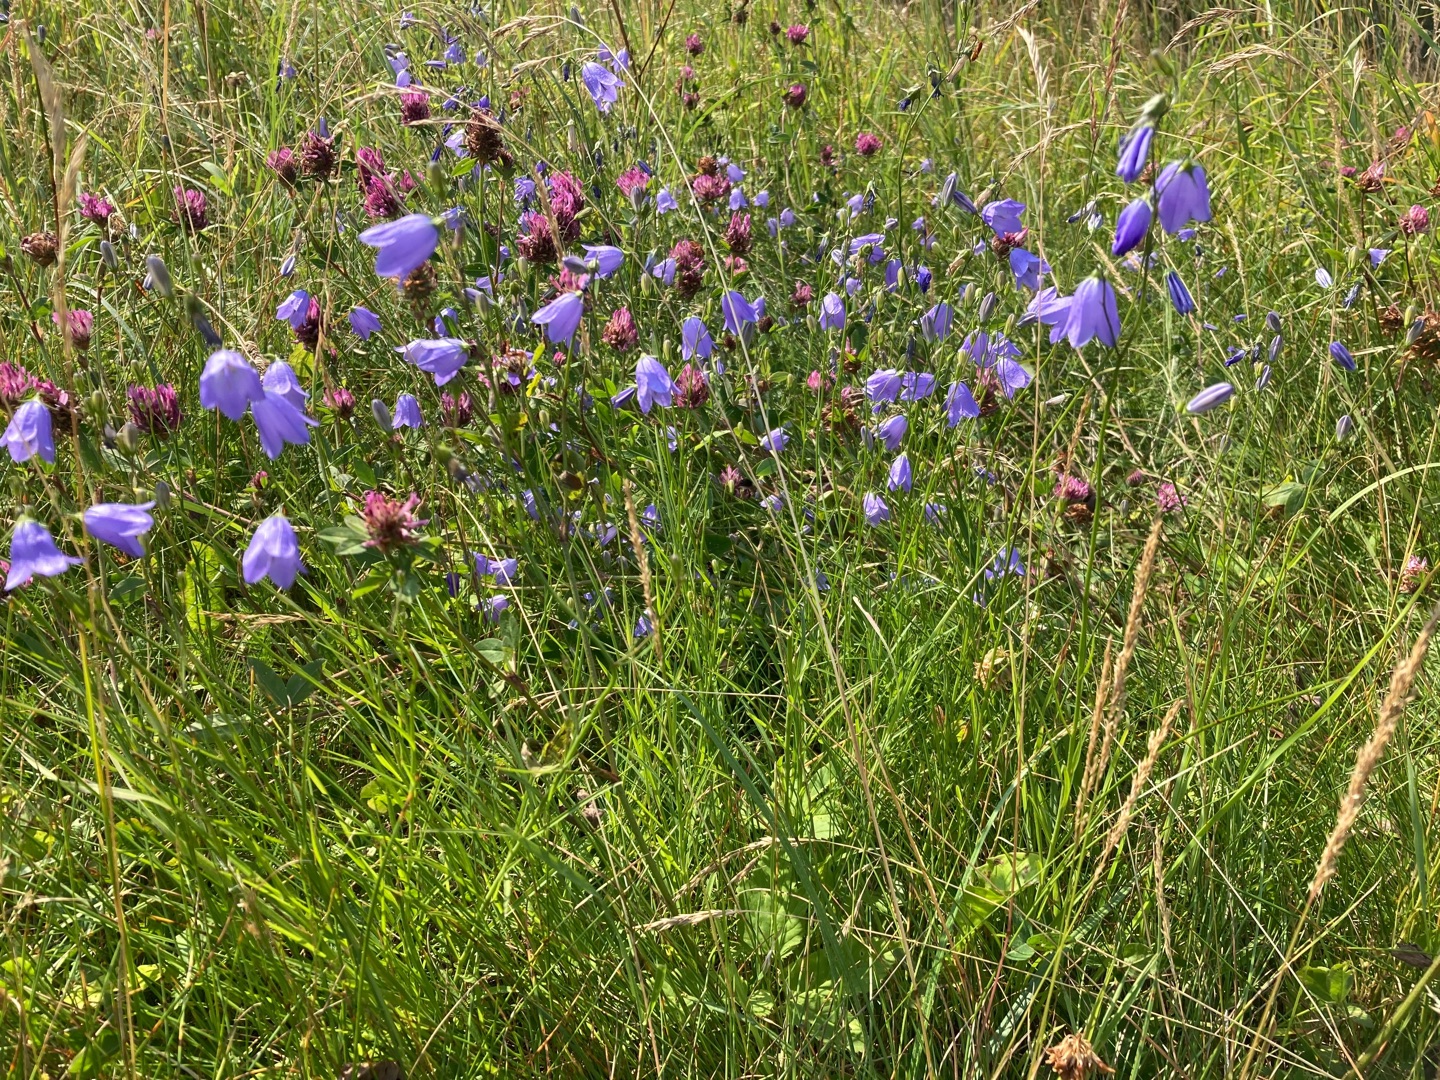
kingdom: Plantae
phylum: Tracheophyta
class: Magnoliopsida
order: Asterales
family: Campanulaceae
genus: Campanula
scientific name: Campanula rotundifolia
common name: Liden klokke
